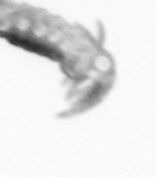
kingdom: Animalia
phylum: Annelida
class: Polychaeta
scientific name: Polychaeta
